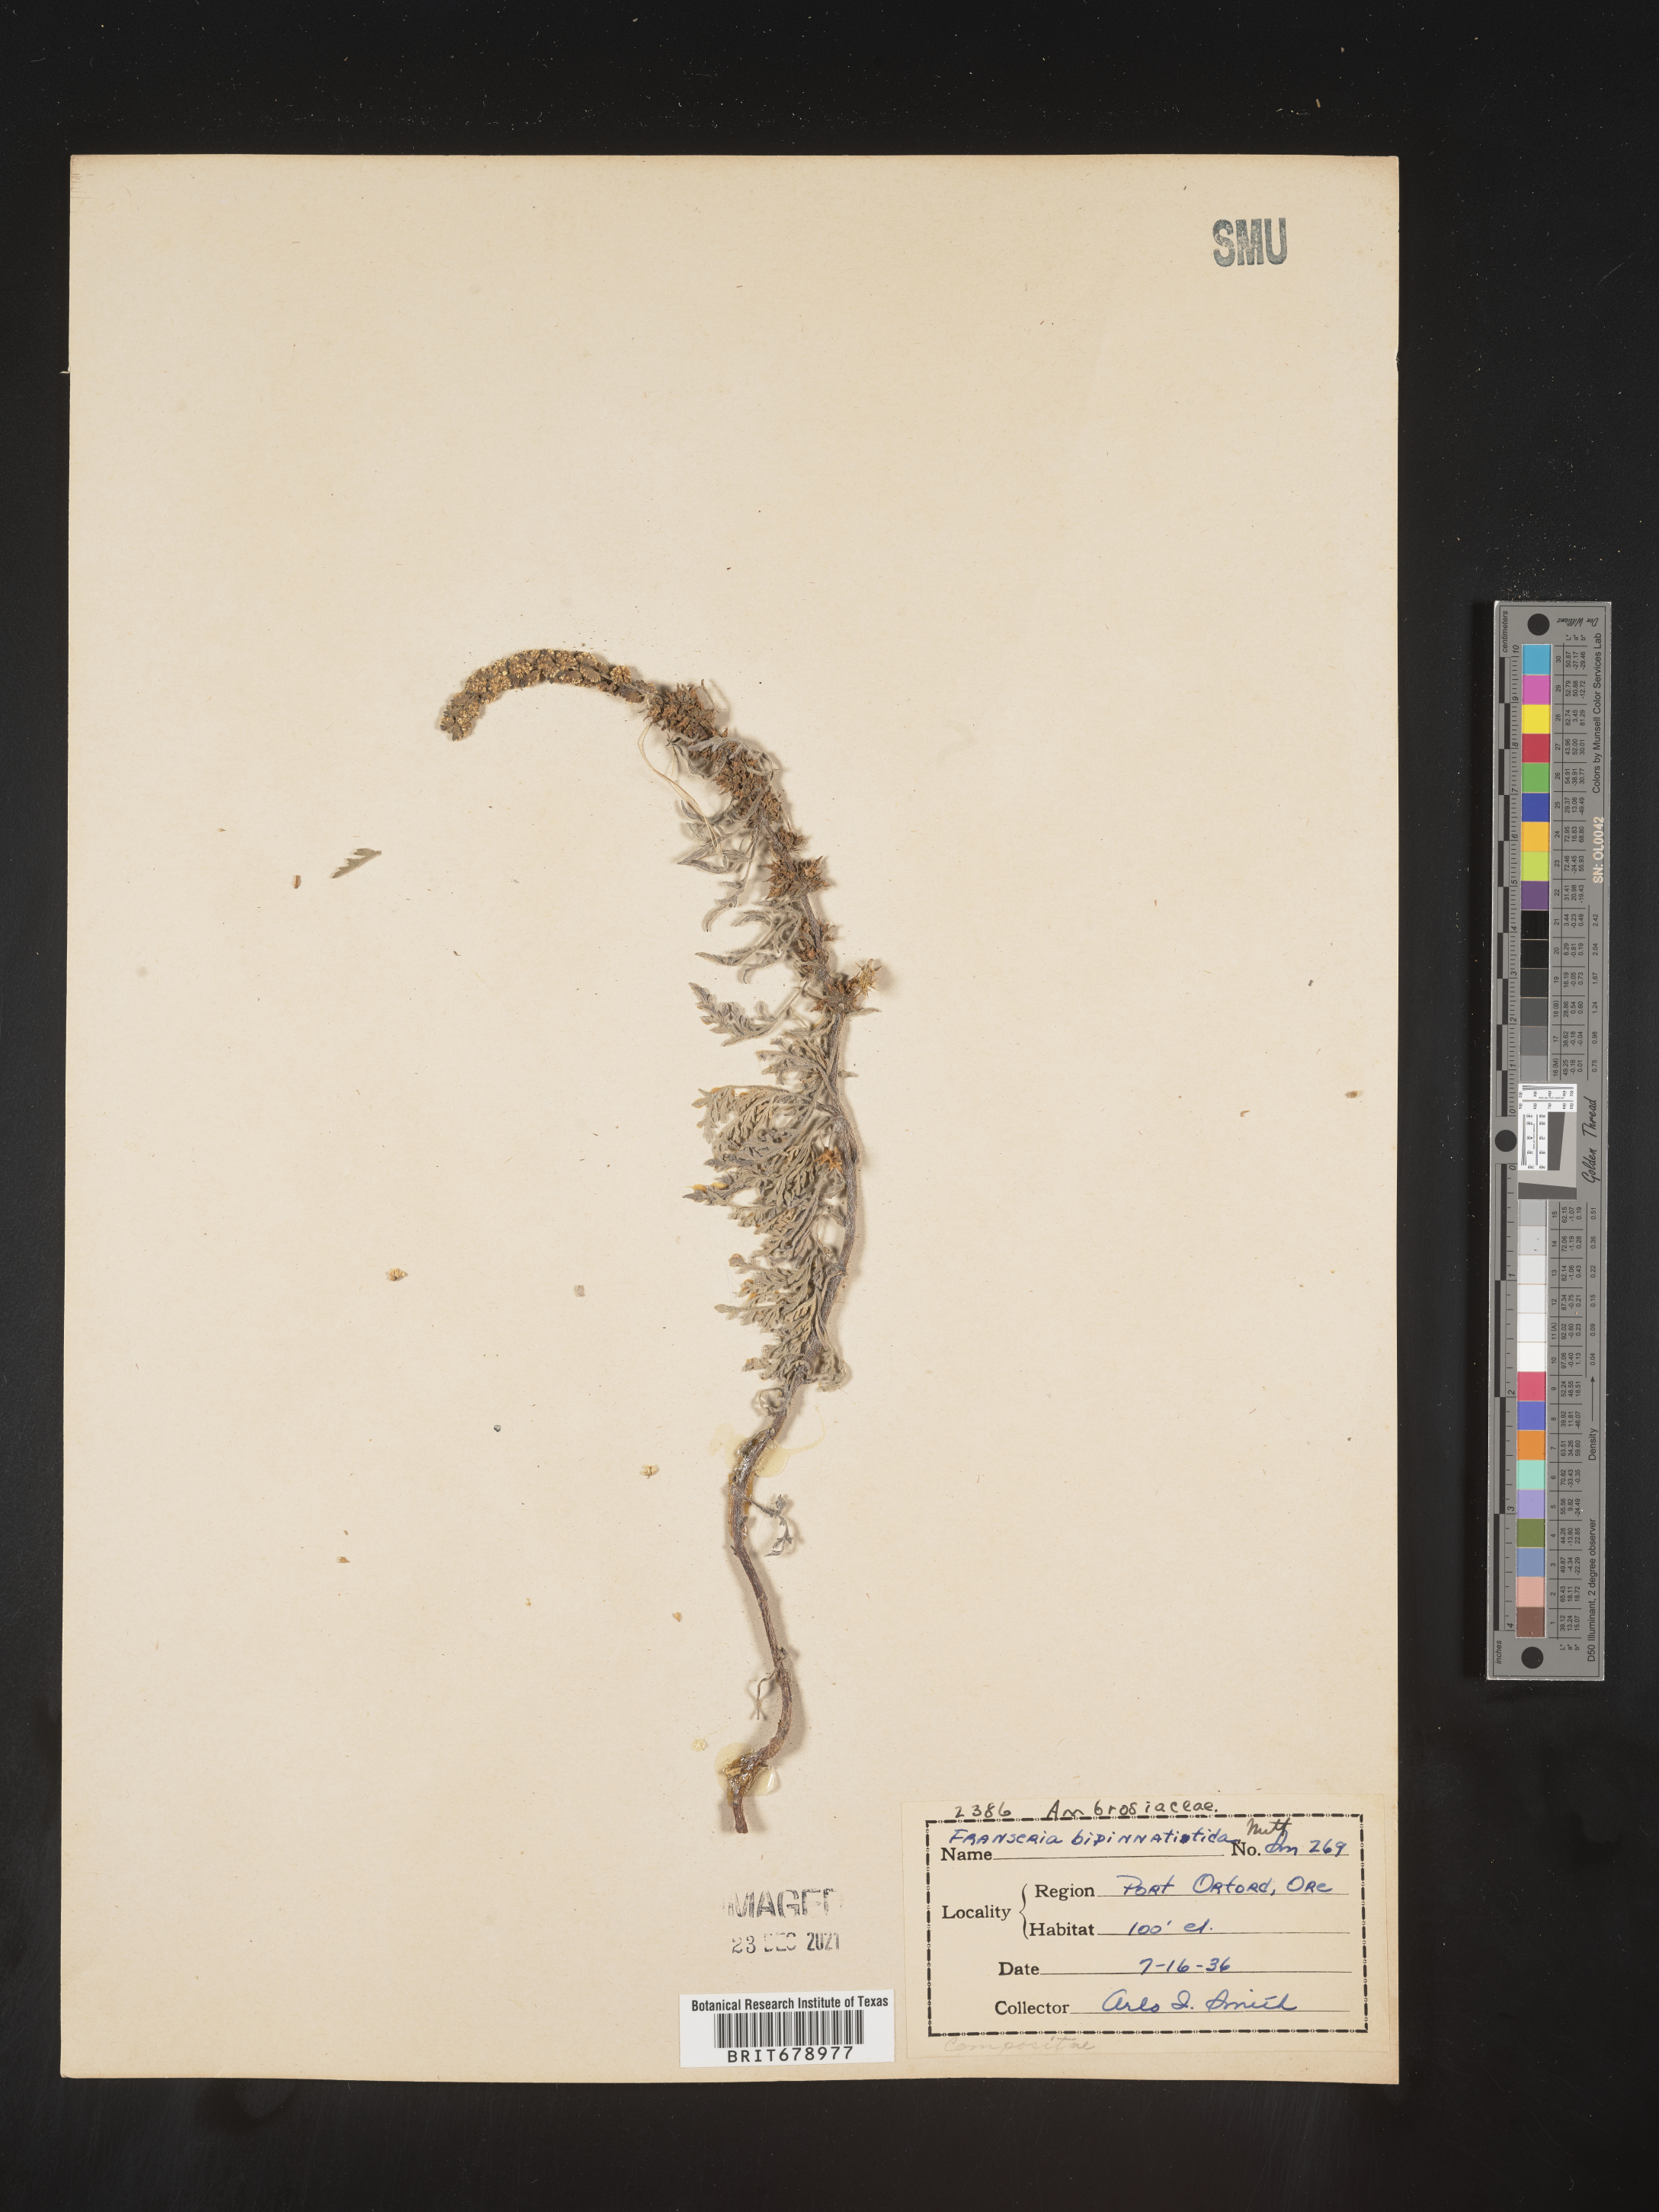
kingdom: Plantae
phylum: Tracheophyta
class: Magnoliopsida
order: Asterales
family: Asteraceae
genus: Ambrosia
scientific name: Ambrosia camphorata
